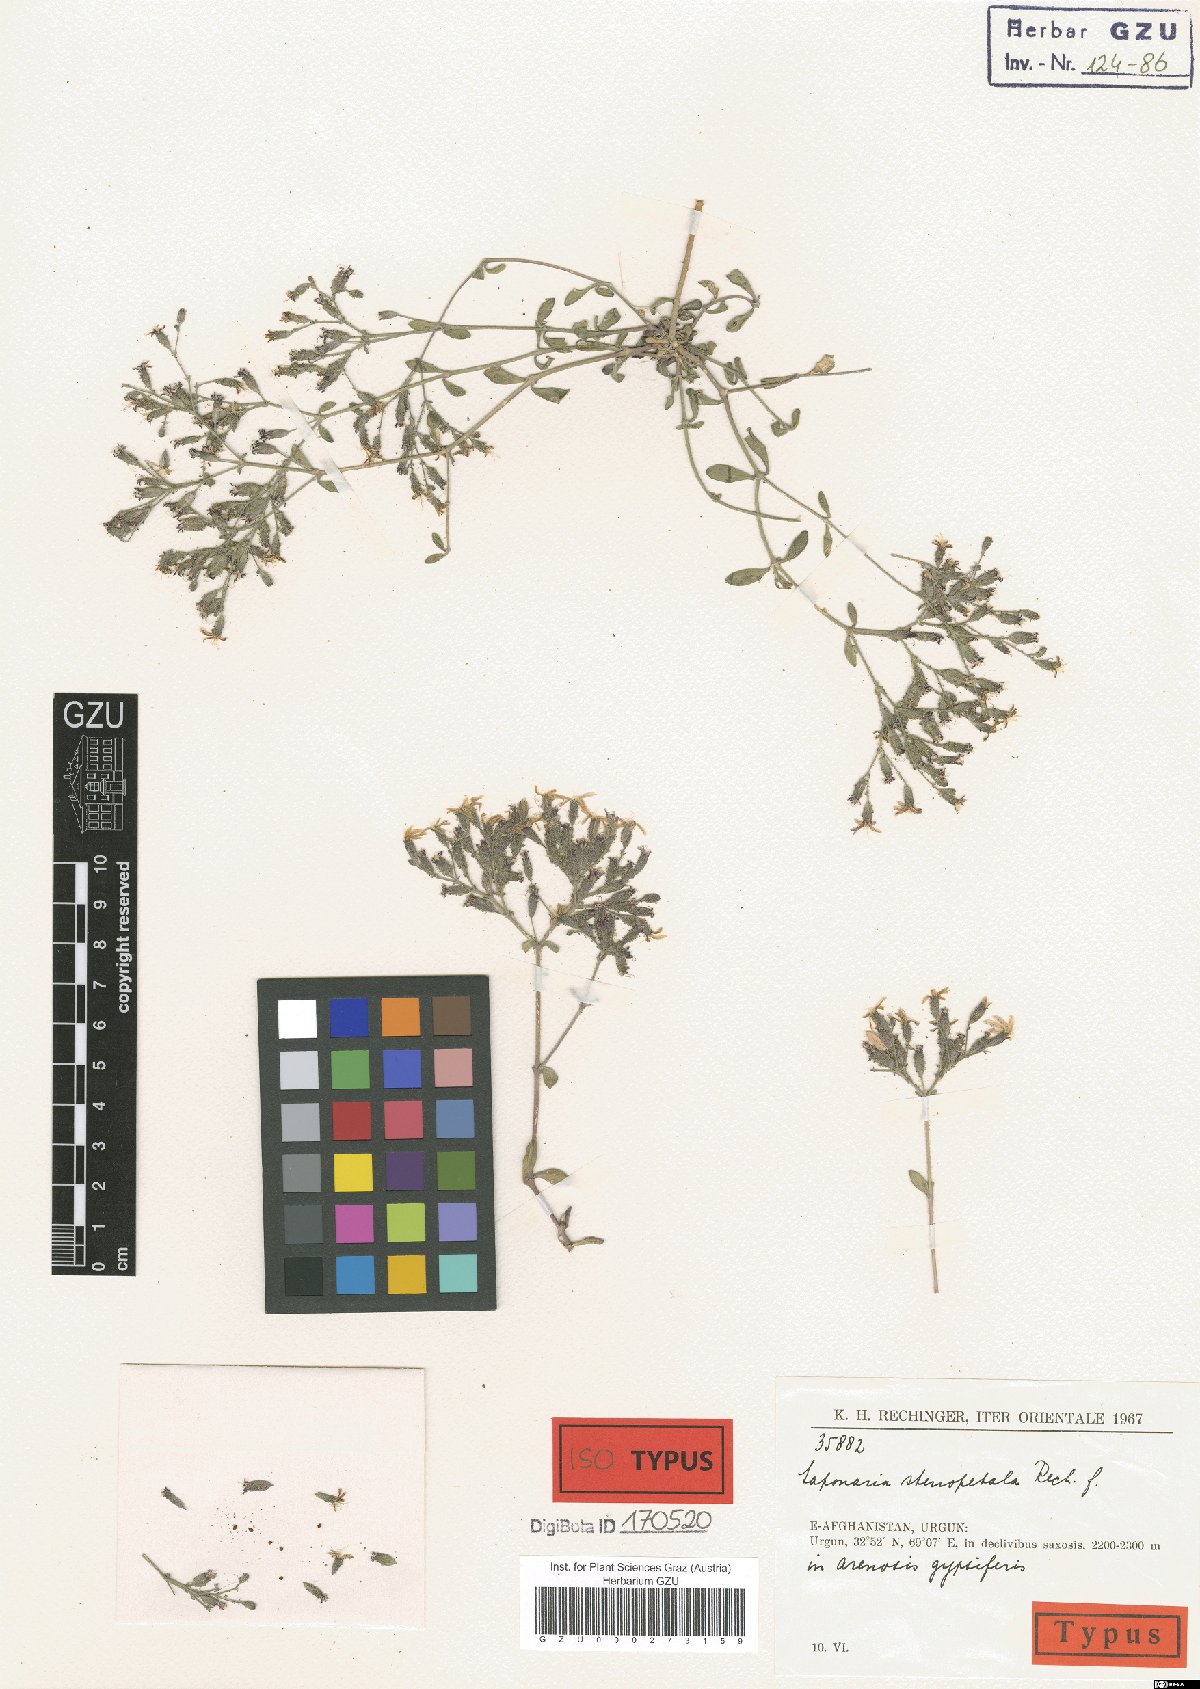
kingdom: Plantae
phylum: Tracheophyta
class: Magnoliopsida
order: Caryophyllales
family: Caryophyllaceae
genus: Saponaria
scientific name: Saponaria stenopetala
